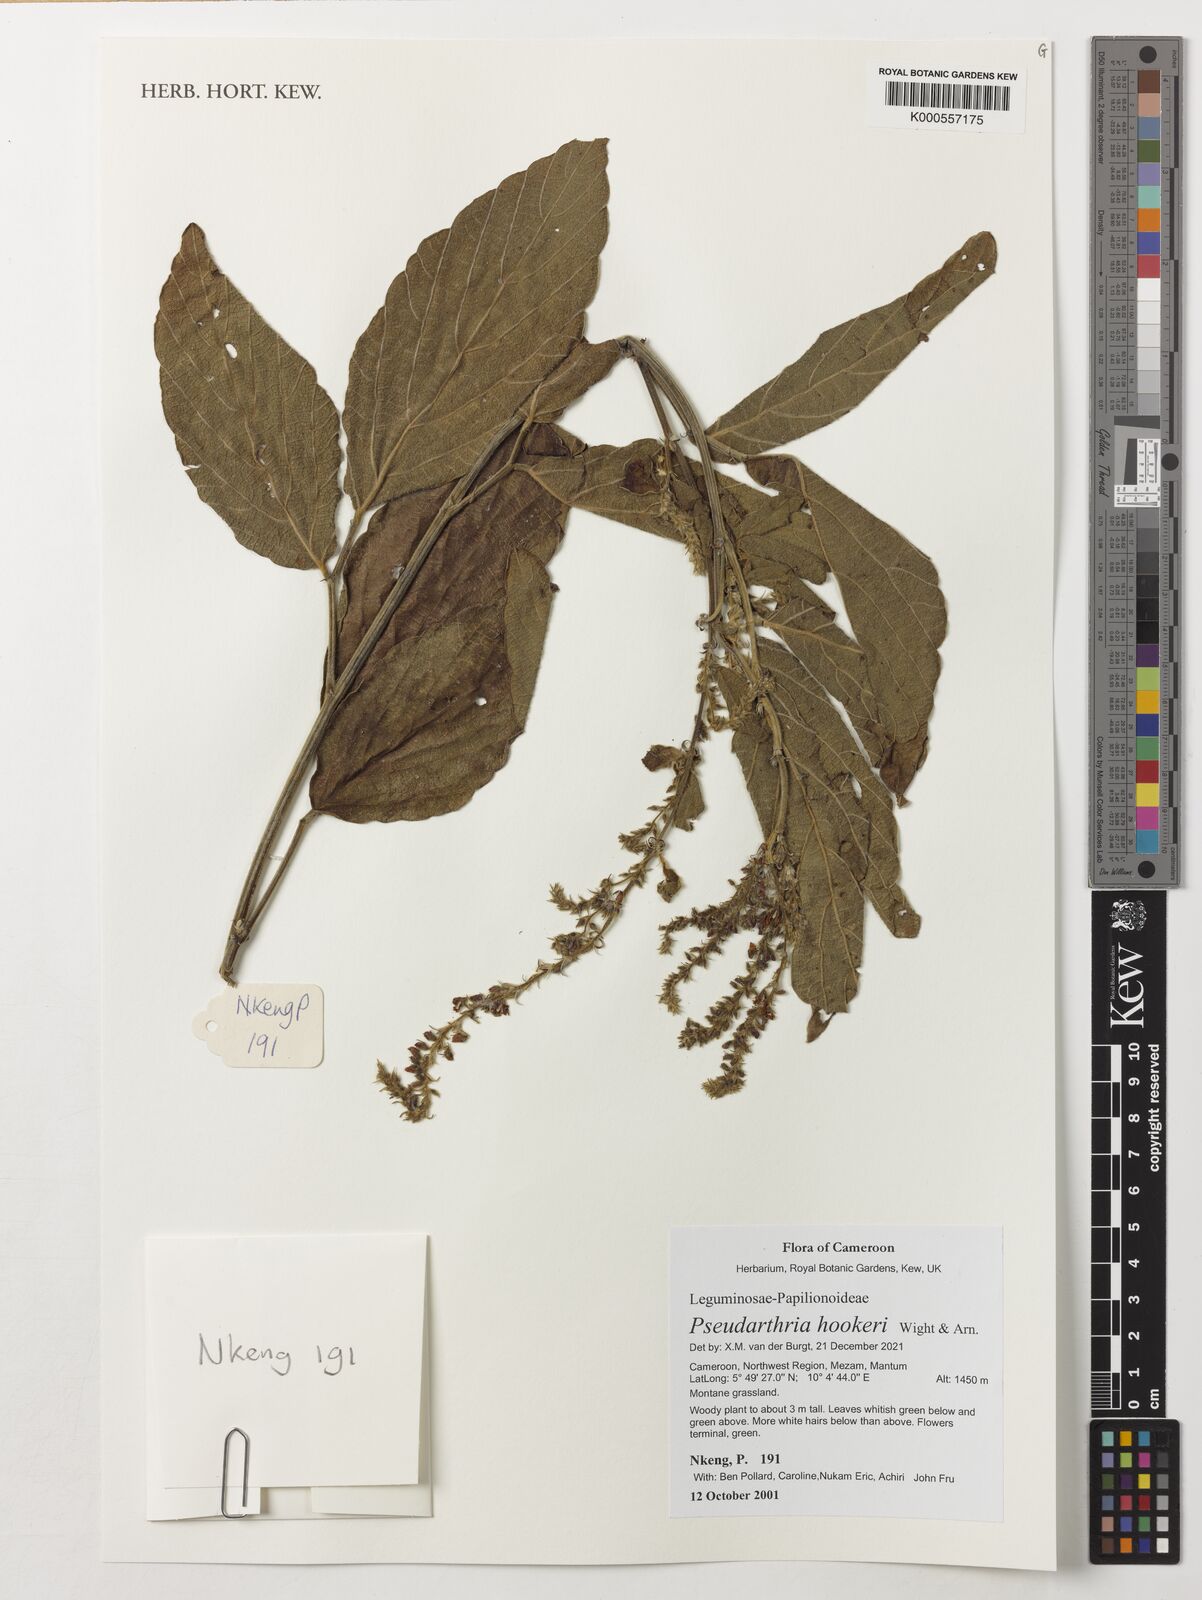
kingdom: Plantae
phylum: Tracheophyta
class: Magnoliopsida
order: Fabales
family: Fabaceae
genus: Pseudarthria
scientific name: Pseudarthria hookeri
